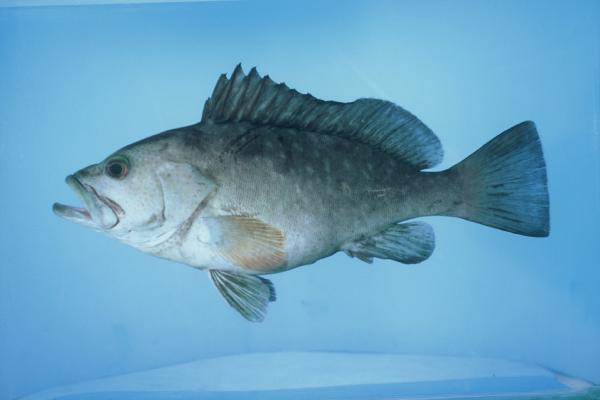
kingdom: Animalia
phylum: Chordata
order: Perciformes
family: Serranidae
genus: Epinephelus
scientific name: Epinephelus multinotatus
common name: Rankin's cod
